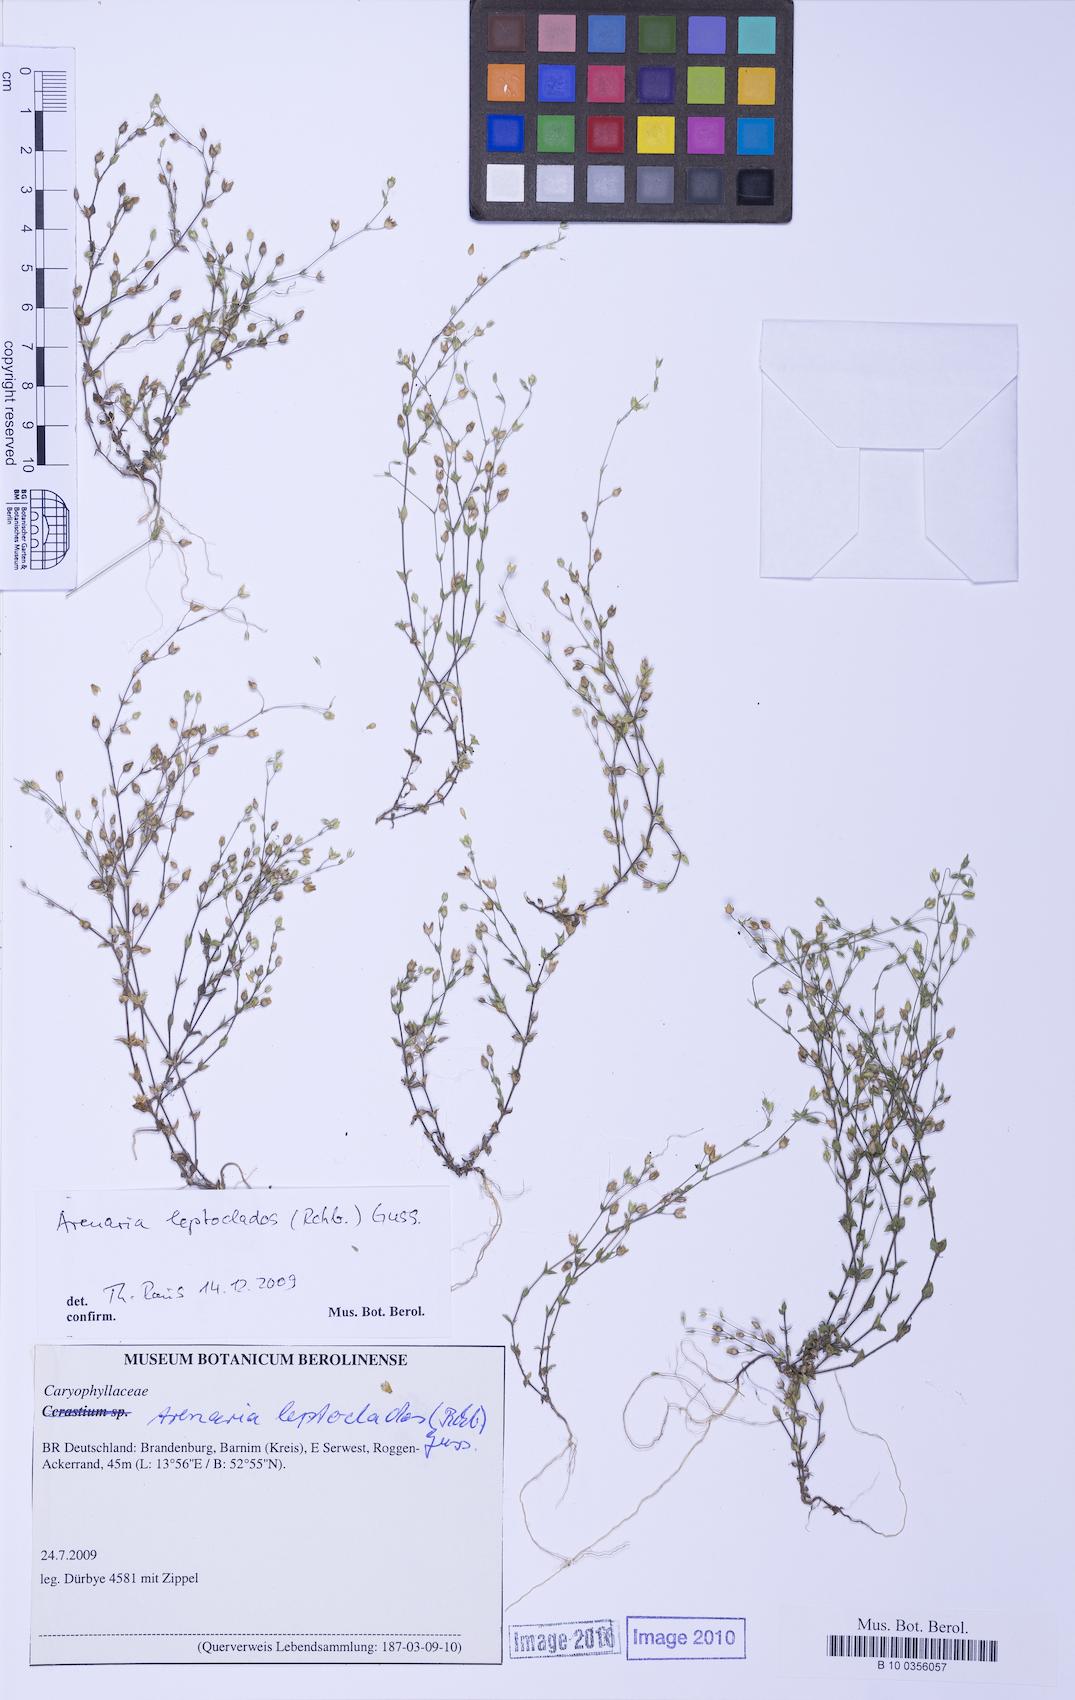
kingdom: Plantae
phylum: Tracheophyta
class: Magnoliopsida
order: Caryophyllales
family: Caryophyllaceae
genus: Arenaria
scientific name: Arenaria leptoclados
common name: Thyme-leaved sandwort
